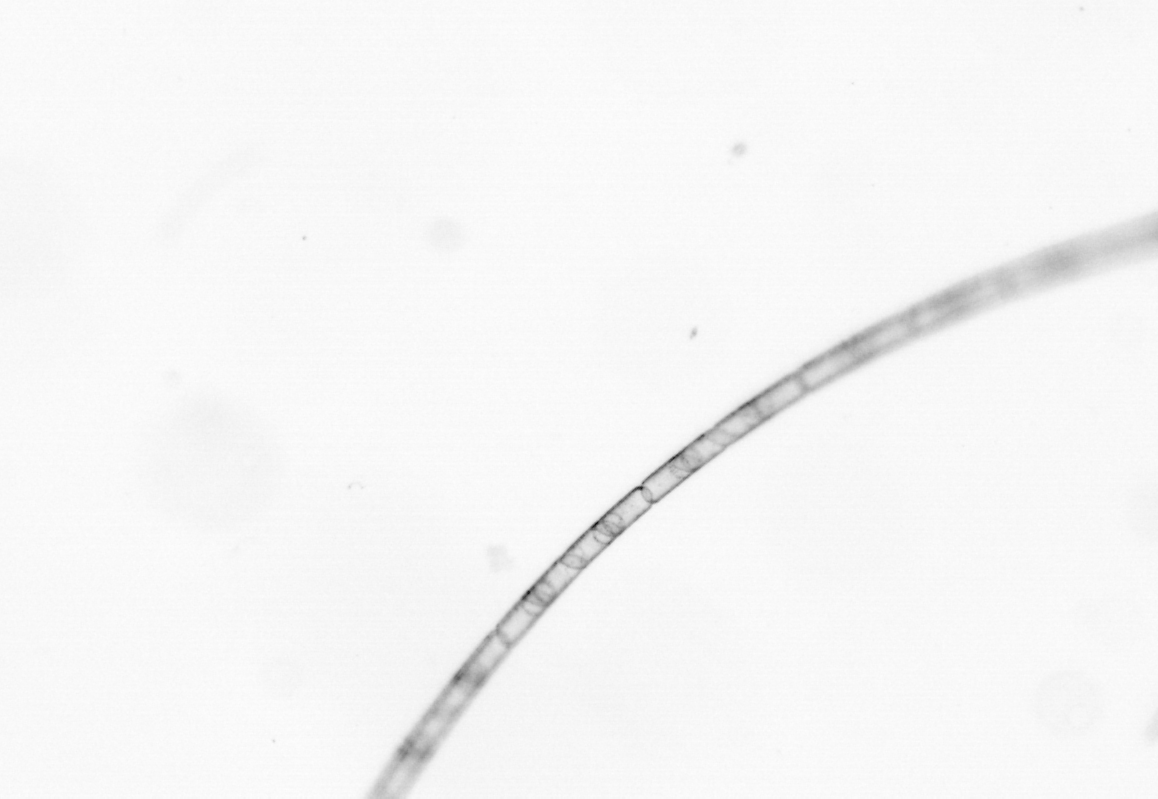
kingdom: Chromista
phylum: Ochrophyta
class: Bacillariophyceae
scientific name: Bacillariophyceae
